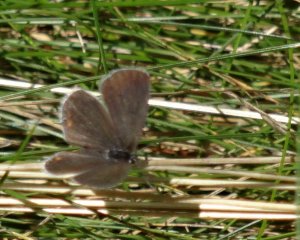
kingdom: Animalia
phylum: Arthropoda
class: Insecta
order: Lepidoptera
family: Lycaenidae
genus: Elkalyce
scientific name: Elkalyce comyntas
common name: Eastern Tailed-Blue
